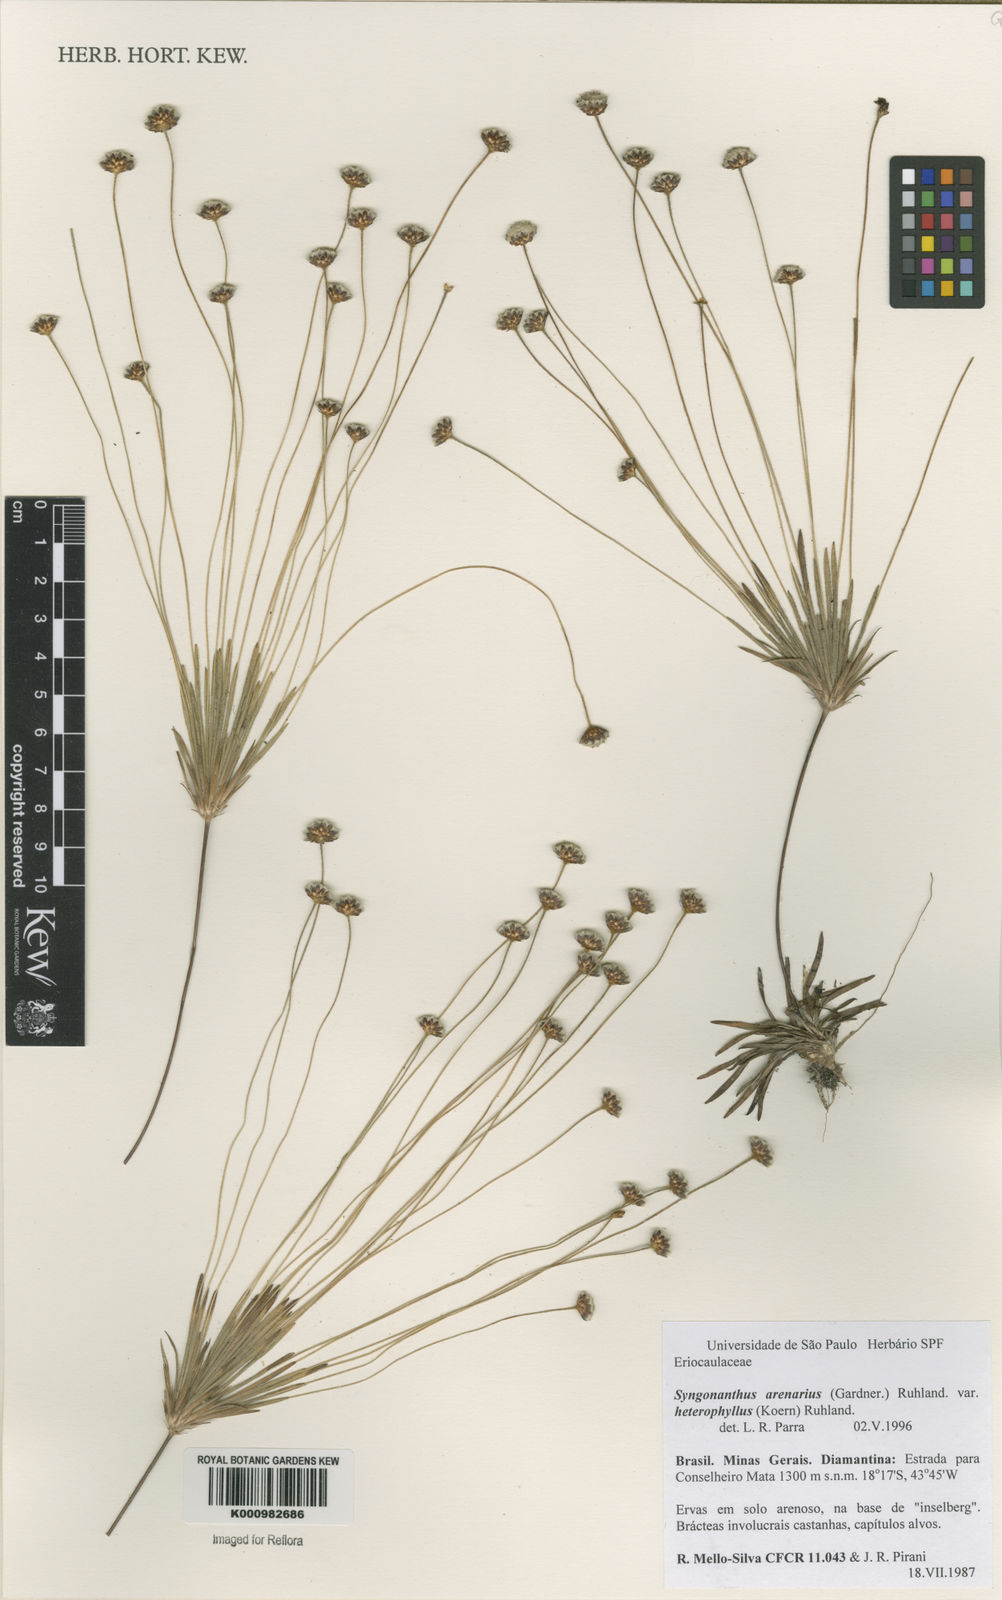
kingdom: Plantae
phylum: Tracheophyta
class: Liliopsida
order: Poales
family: Eriocaulaceae
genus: Syngonanthus
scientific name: Syngonanthus arenarius
